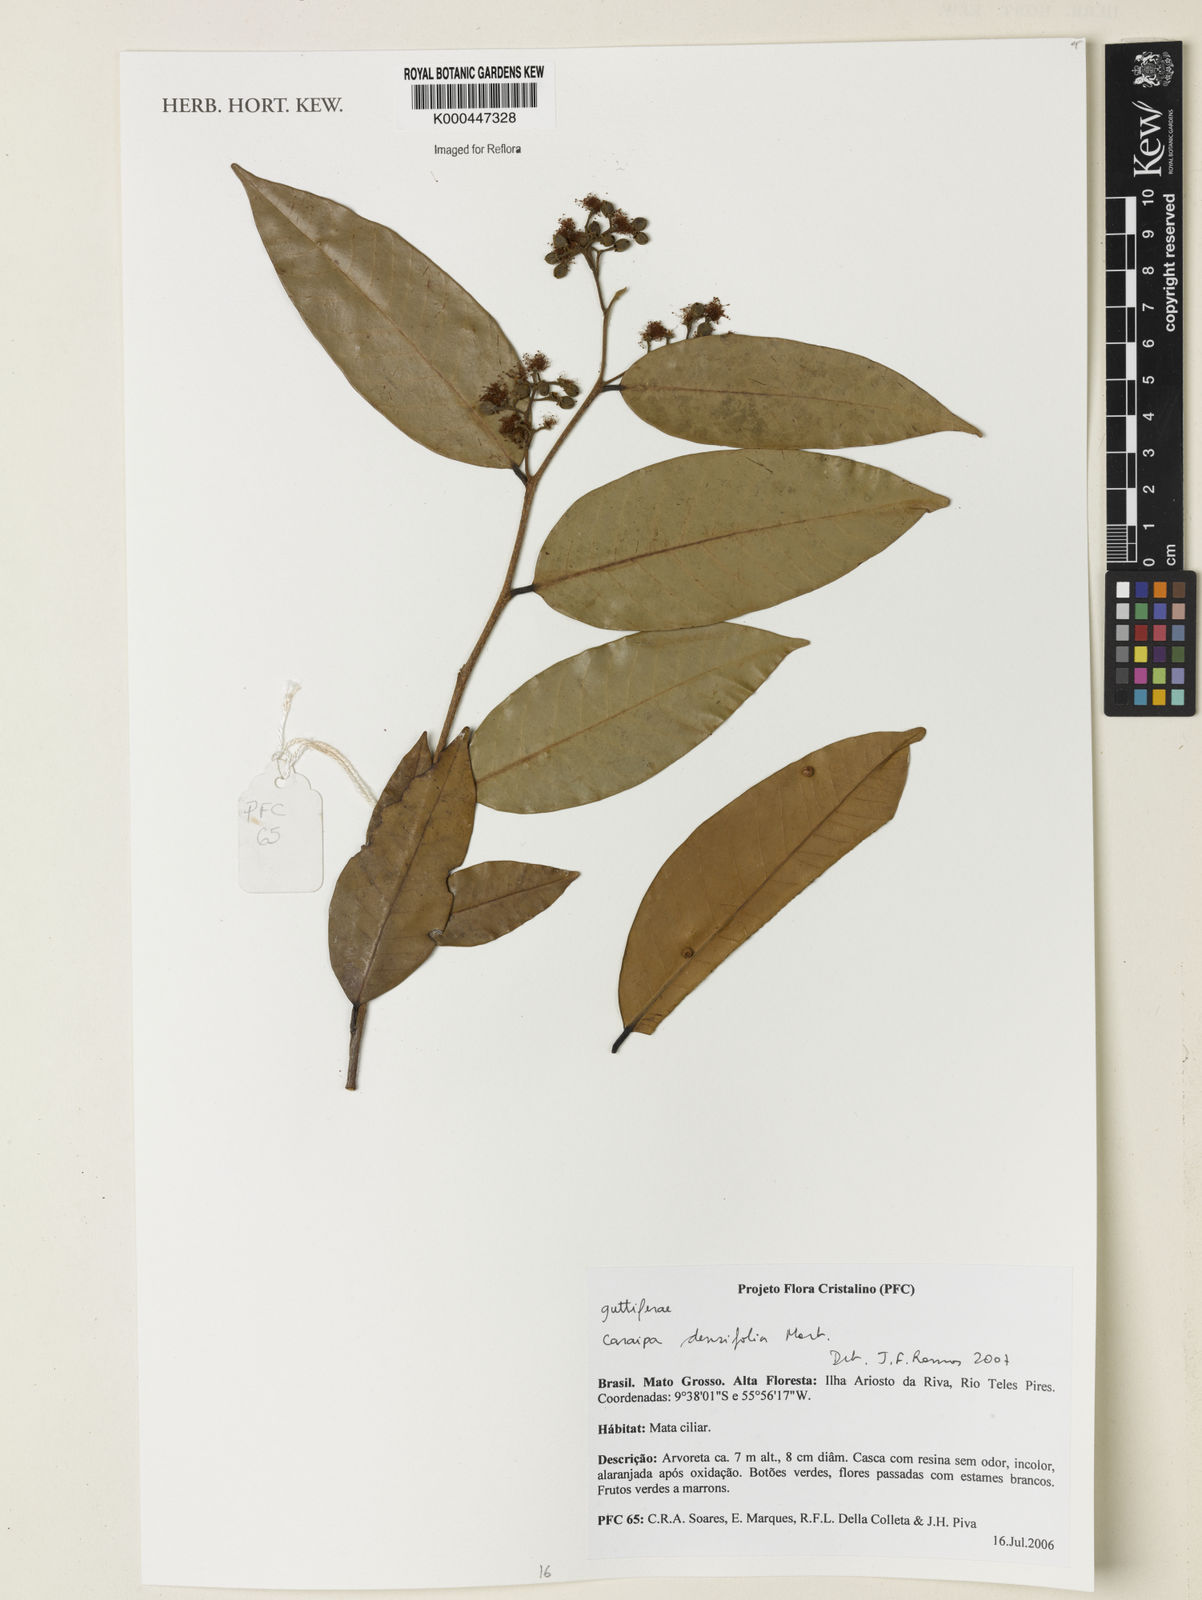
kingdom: Plantae
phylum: Tracheophyta
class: Magnoliopsida
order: Malpighiales
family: Calophyllaceae
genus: Caraipa
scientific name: Caraipa densifolia
